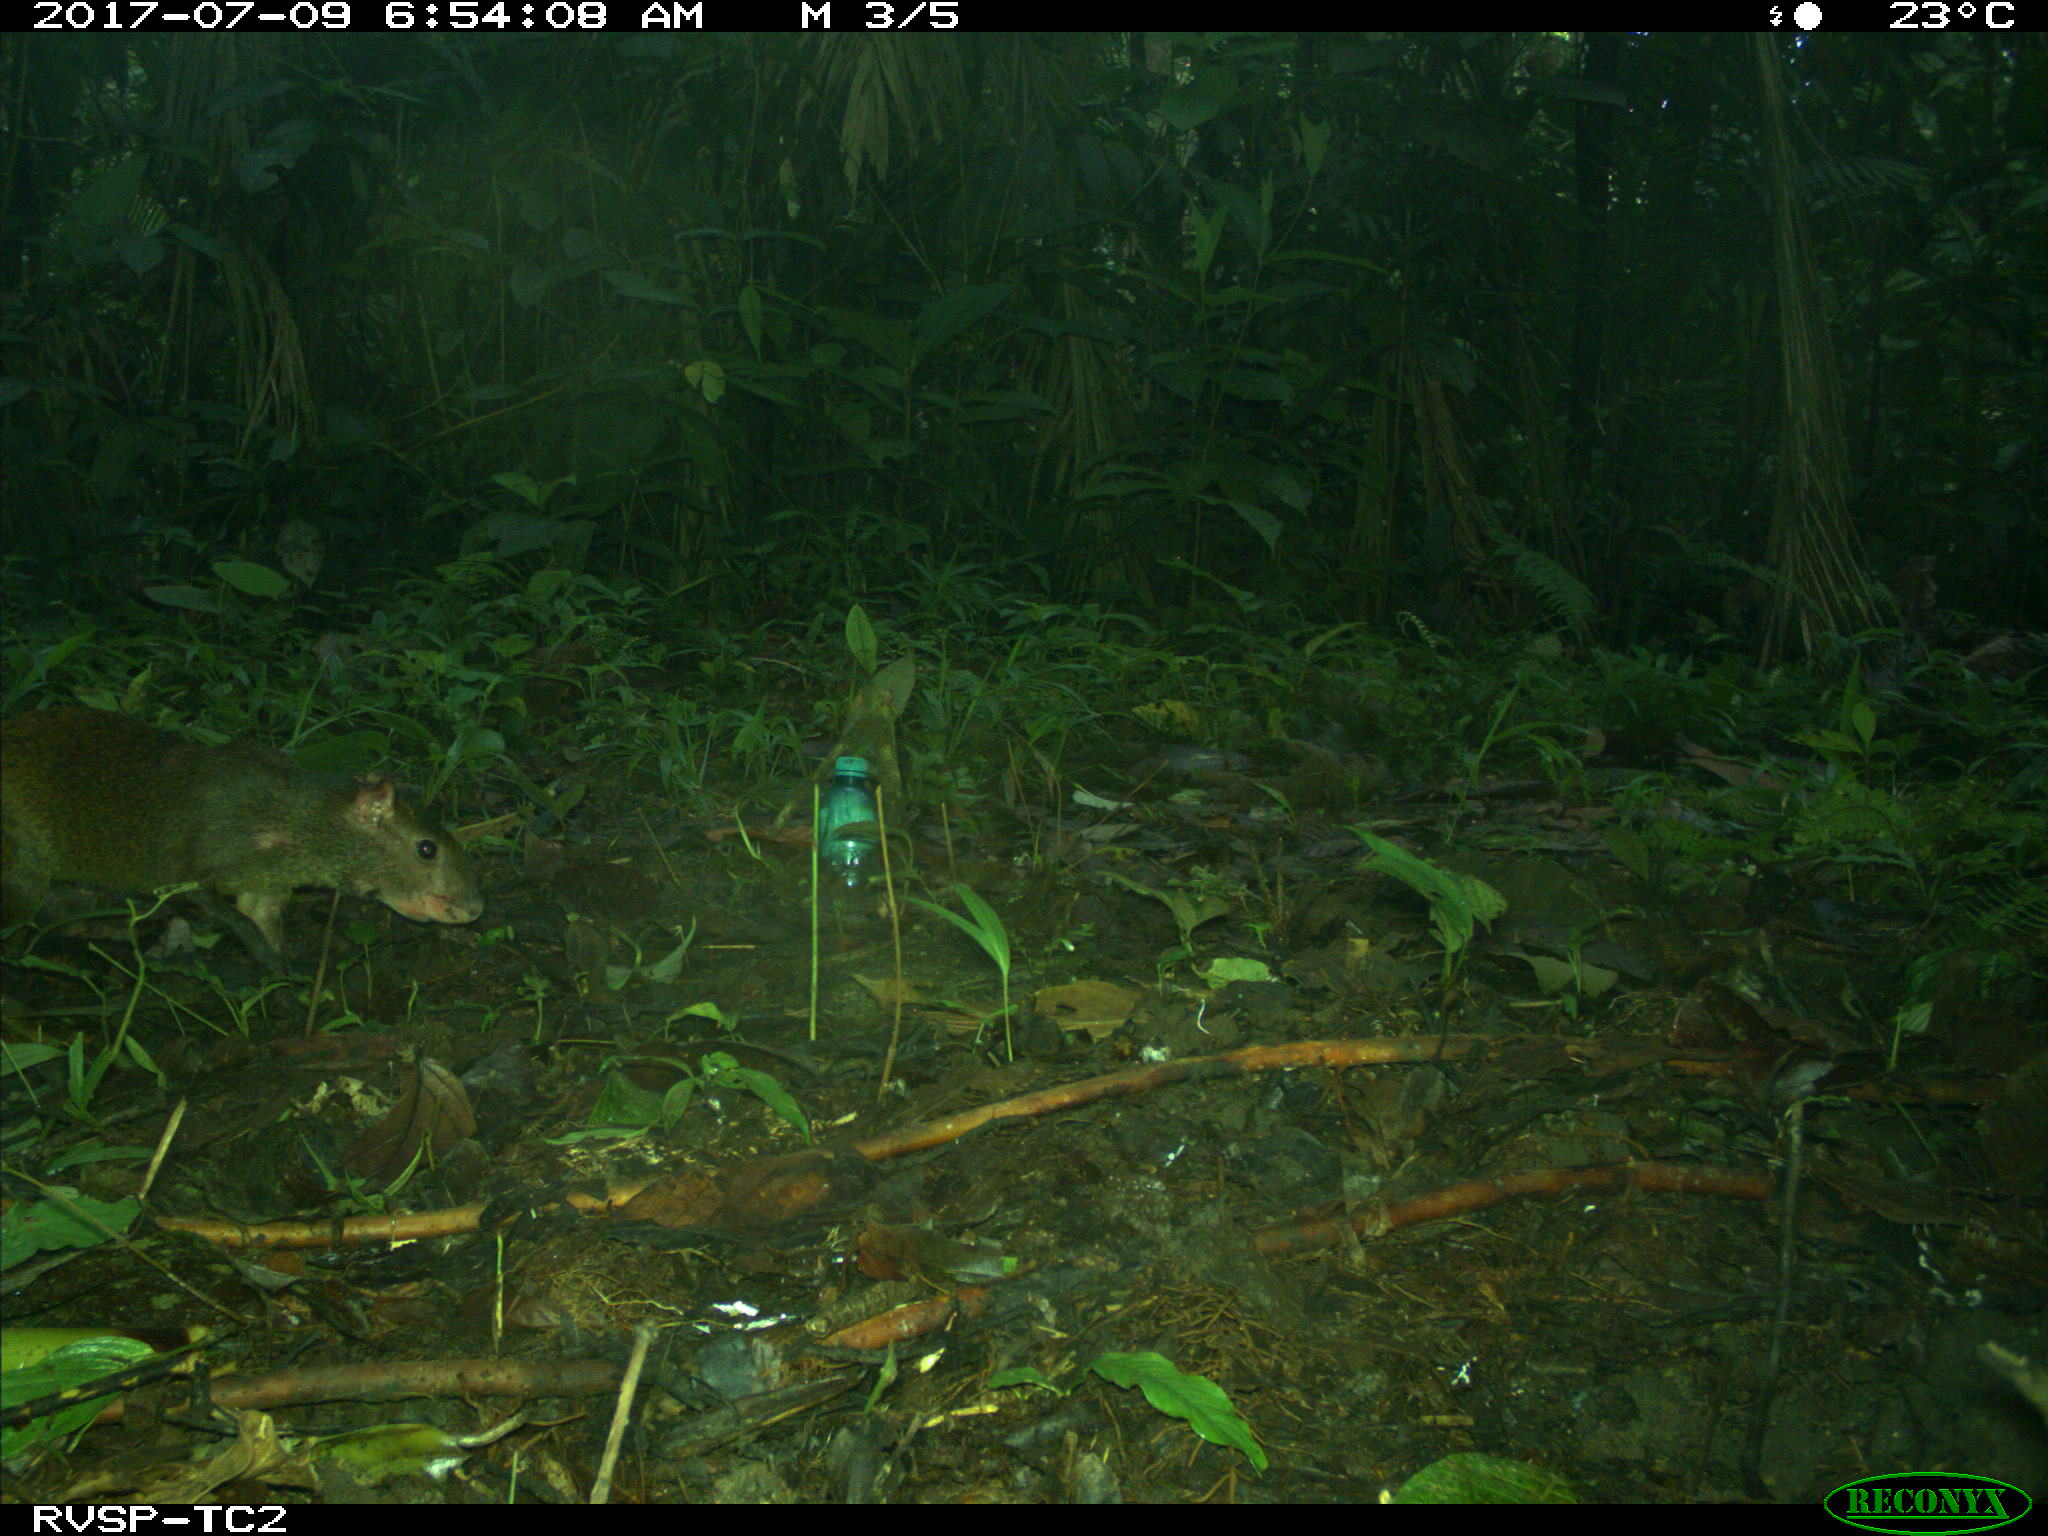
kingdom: Animalia
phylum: Chordata
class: Mammalia
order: Rodentia
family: Dasyproctidae
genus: Dasyprocta
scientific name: Dasyprocta punctata
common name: Central american agouti
